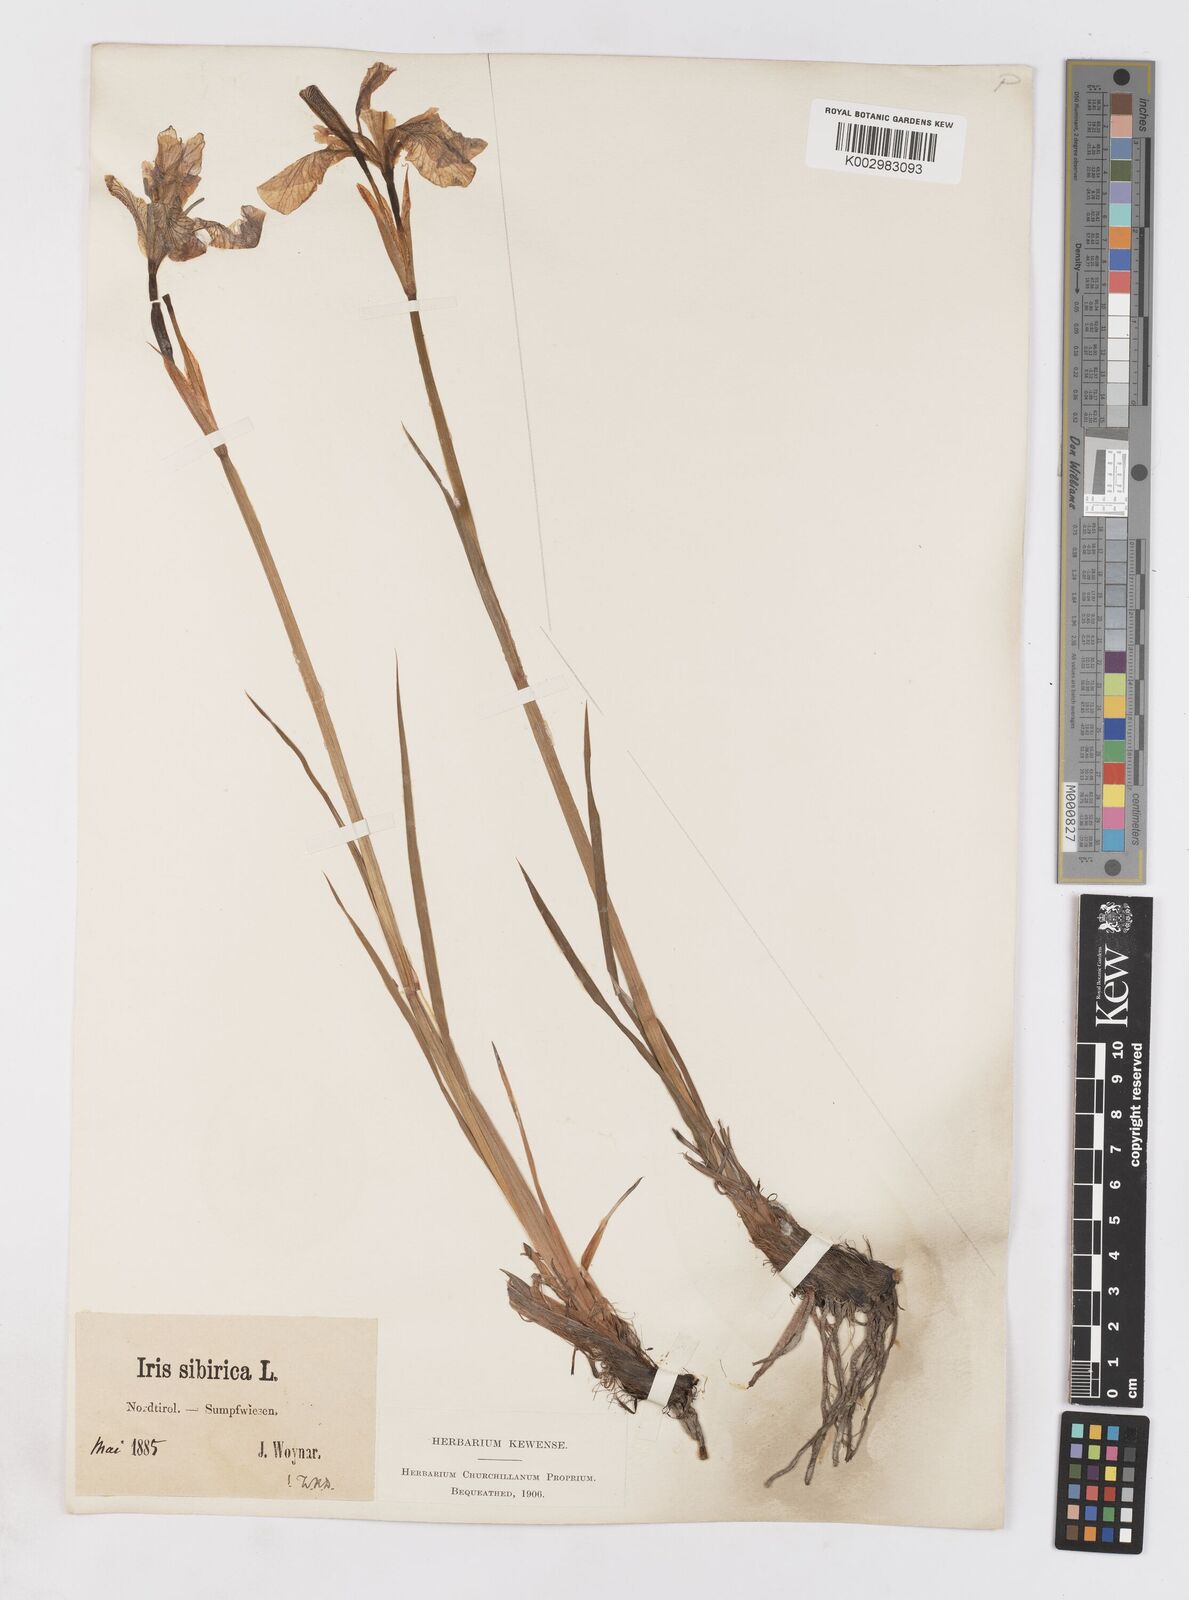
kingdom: Plantae
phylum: Tracheophyta
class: Liliopsida
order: Asparagales
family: Iridaceae
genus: Iris
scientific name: Iris sibirica
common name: Siberian iris
